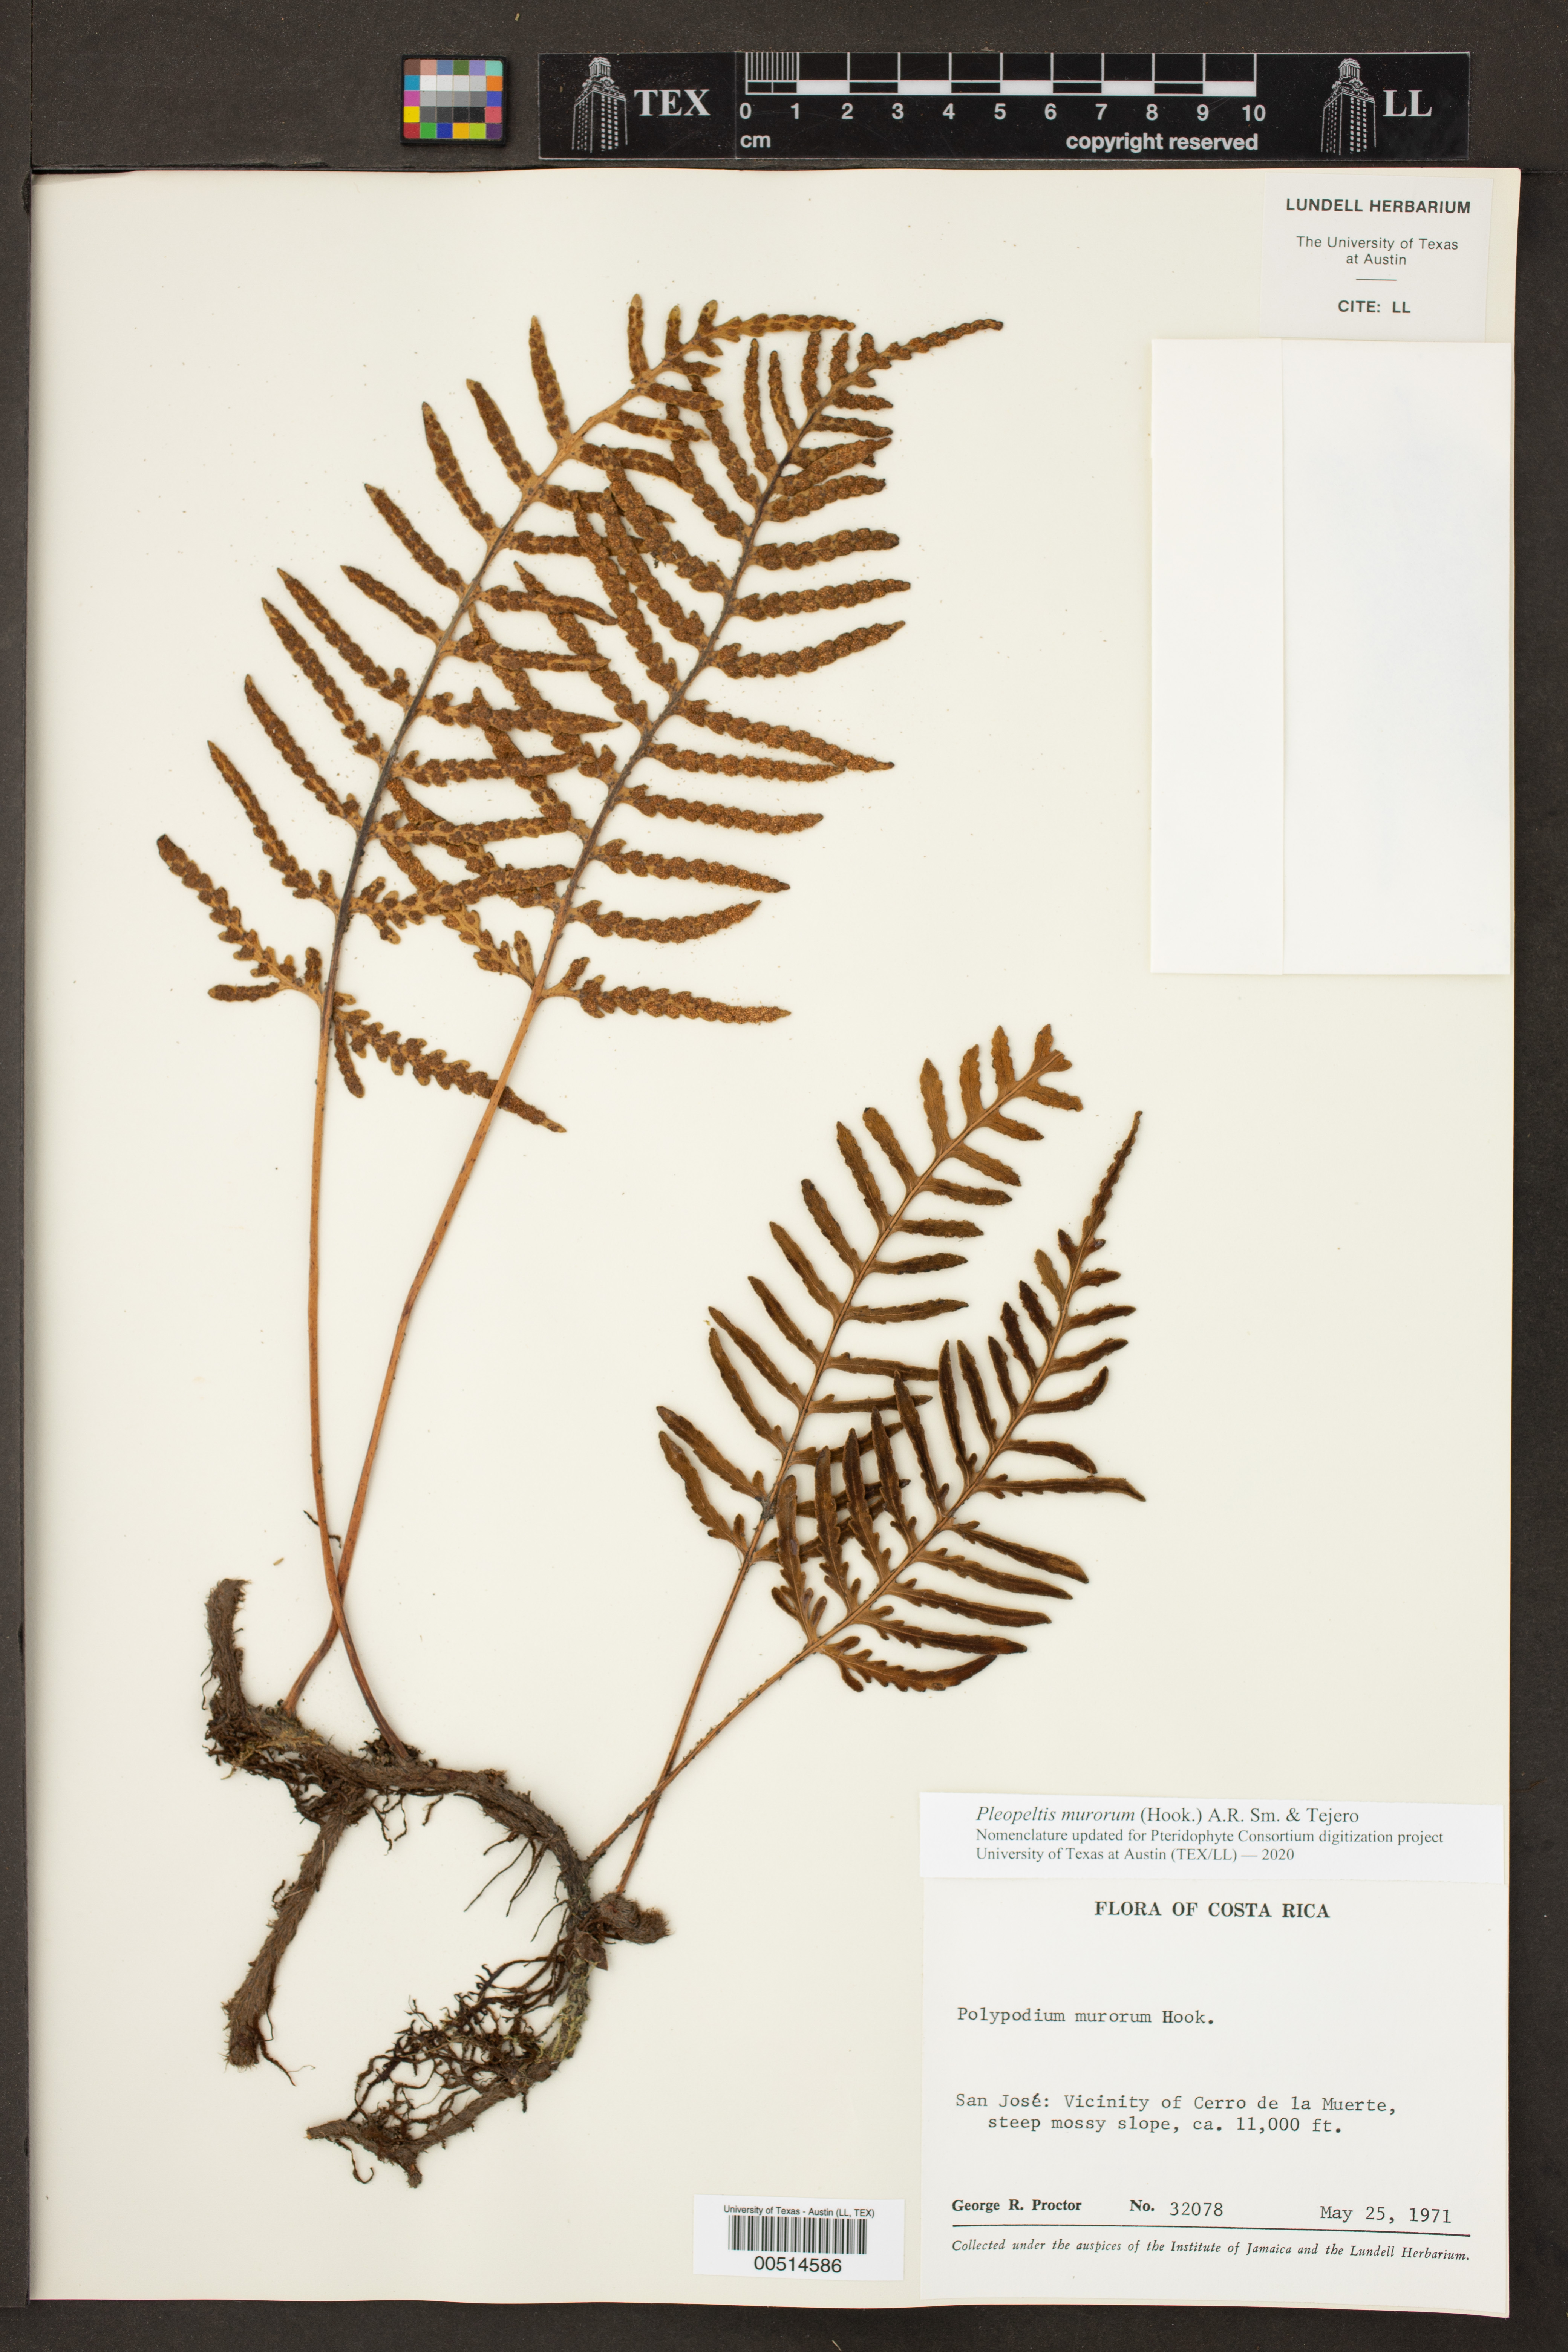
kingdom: Plantae
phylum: Tracheophyta
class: Polypodiopsida
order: Polypodiales
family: Polypodiaceae
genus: Pleopeltis
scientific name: Pleopeltis murora
